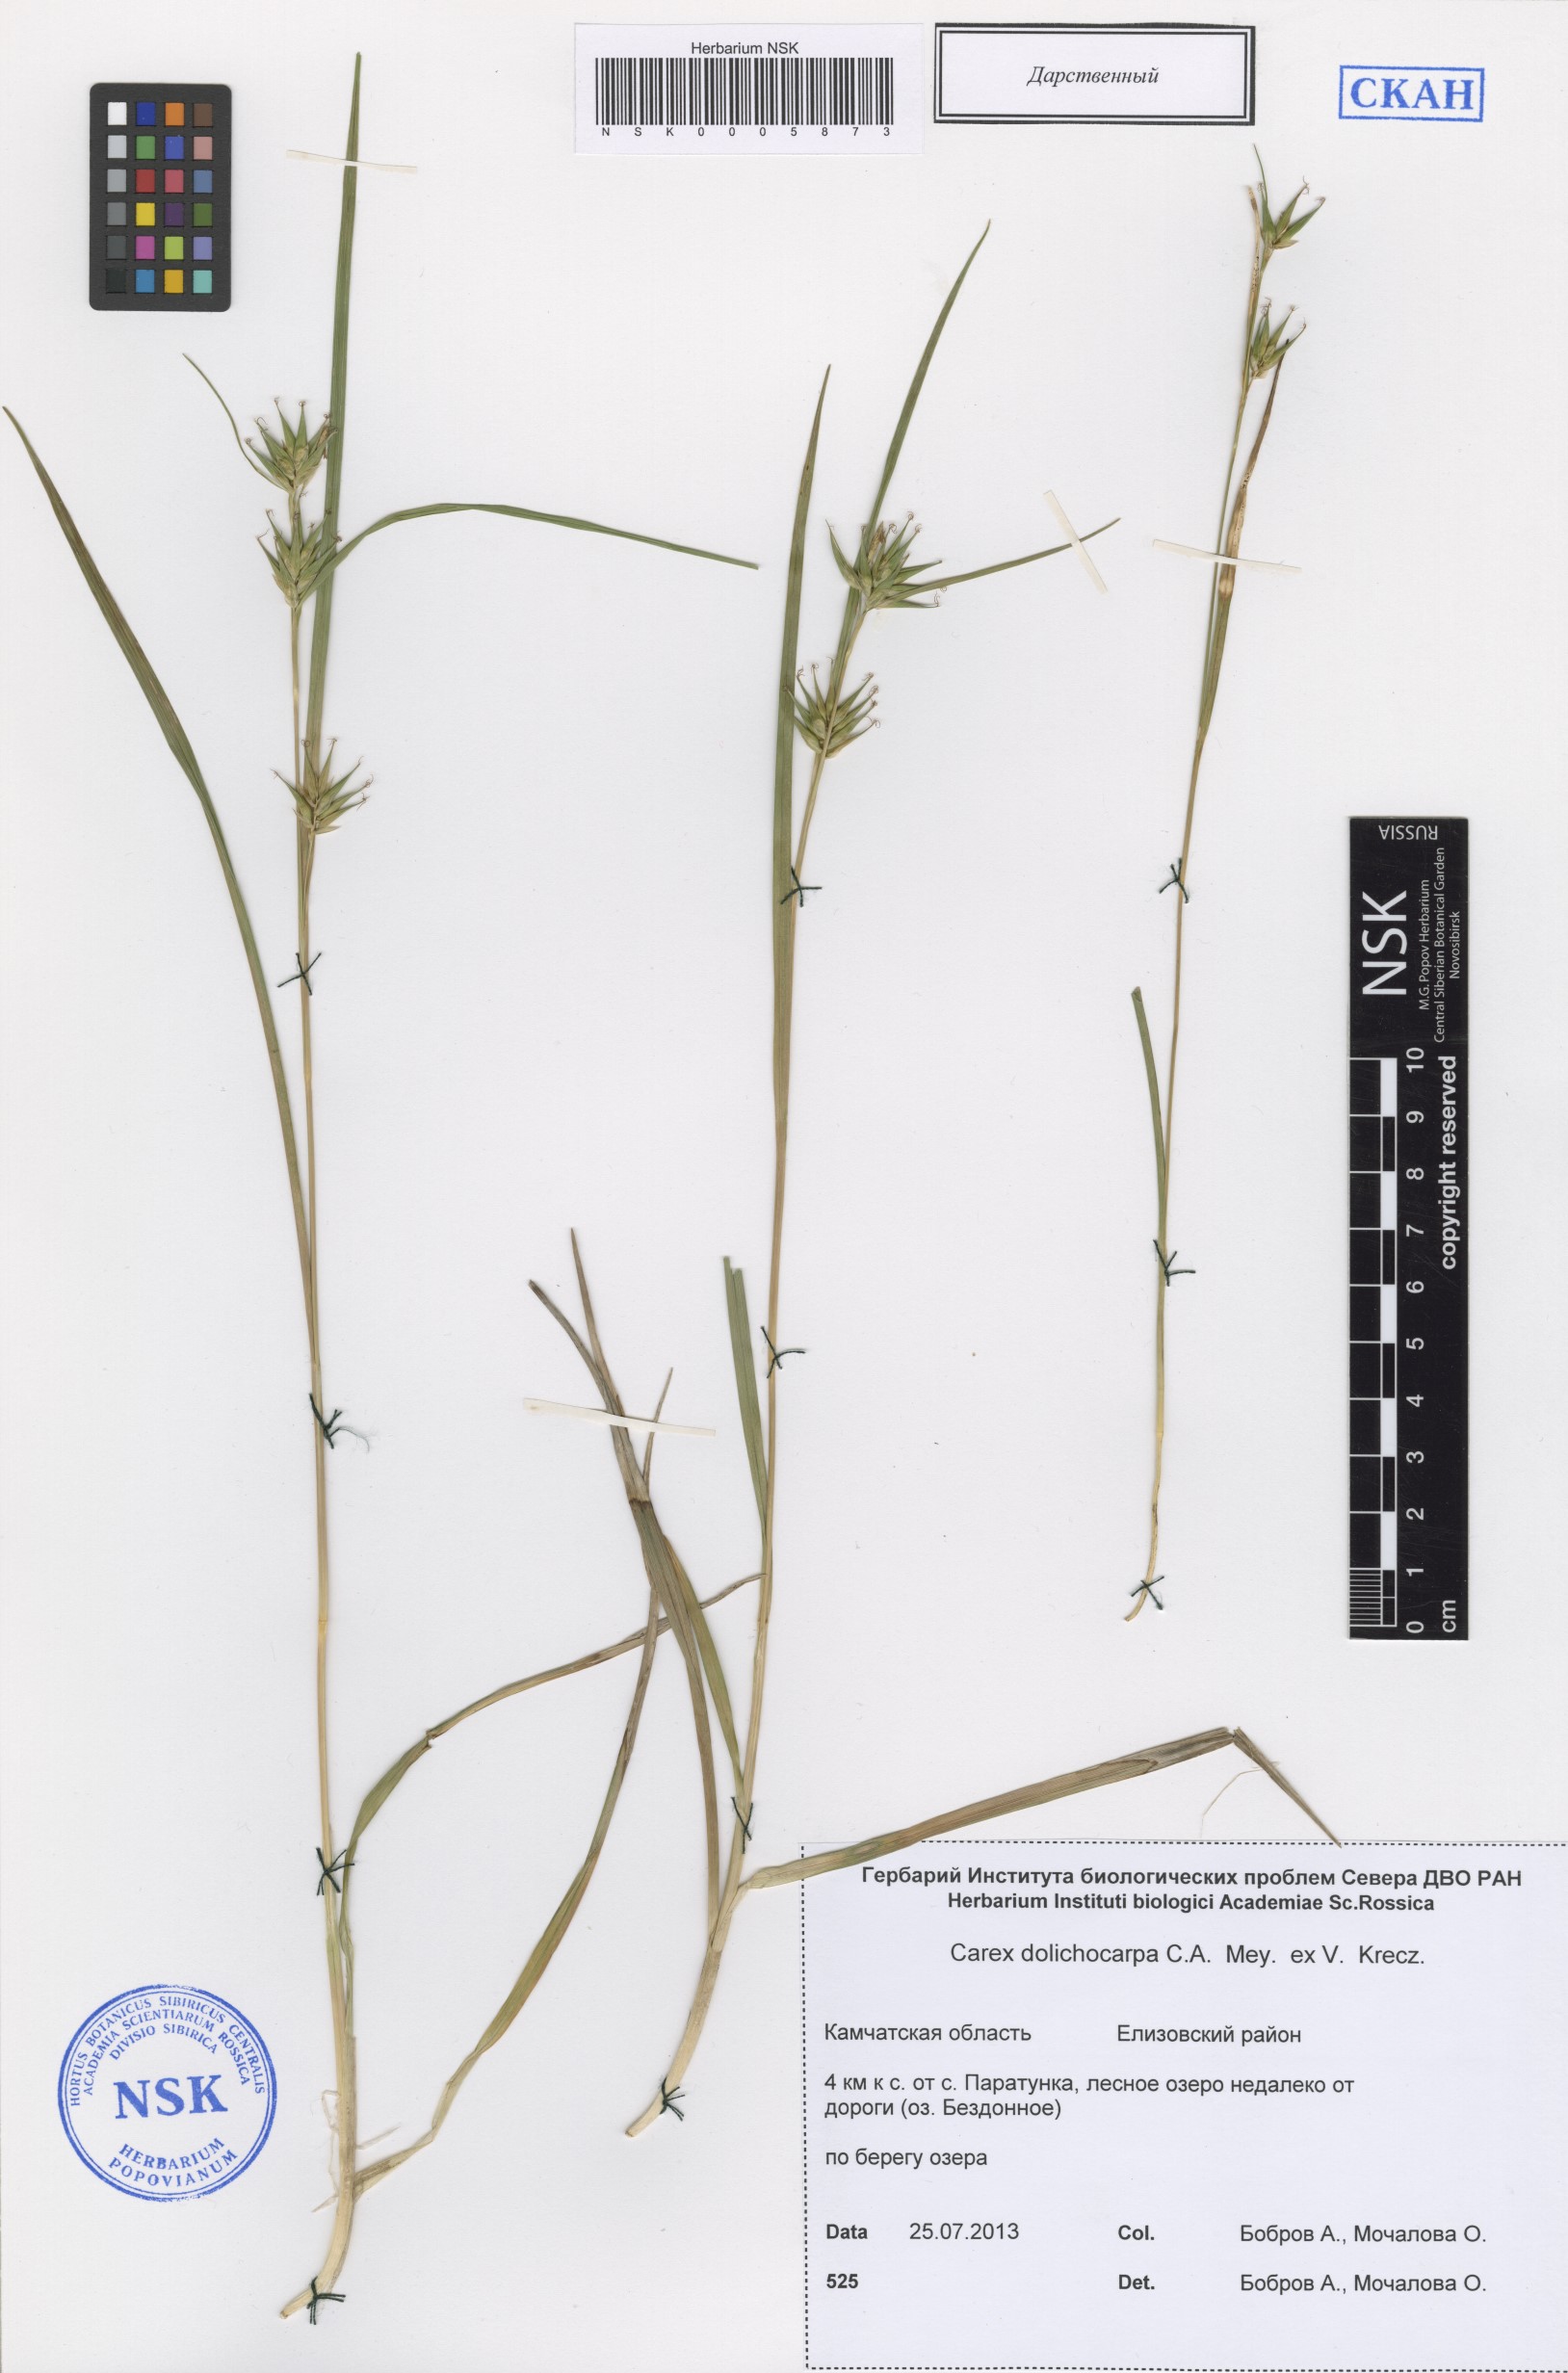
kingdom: Plantae
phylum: Tracheophyta
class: Liliopsida
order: Poales
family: Cyperaceae
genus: Carex
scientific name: Carex michauxiana
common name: Michaux's sedge
